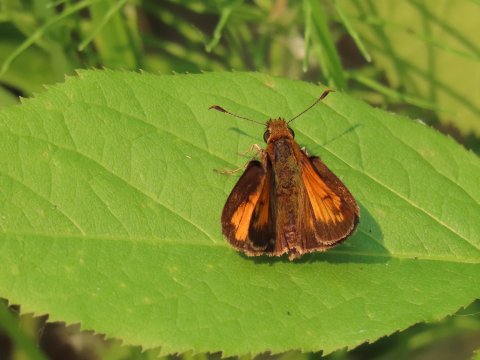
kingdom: Animalia
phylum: Arthropoda
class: Insecta
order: Lepidoptera
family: Hesperiidae
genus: Lon
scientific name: Lon hobomok
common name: Hobomok Skipper
